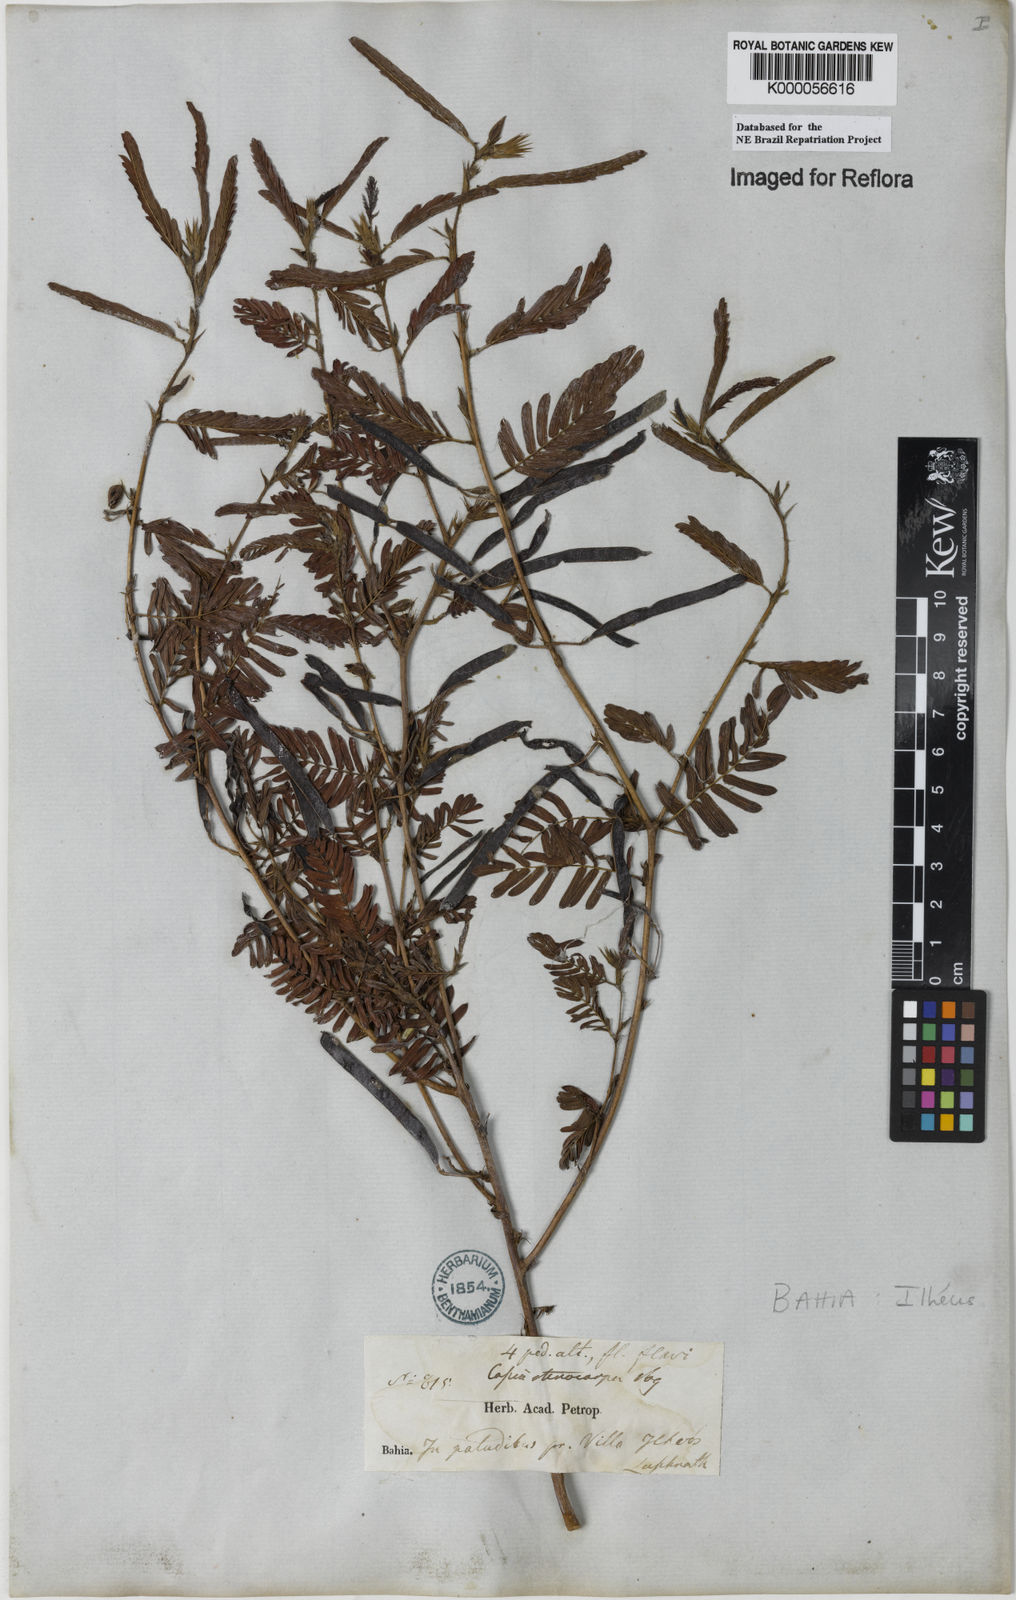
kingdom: Plantae
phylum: Tracheophyta
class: Magnoliopsida
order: Fabales
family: Fabaceae
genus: Chamaecrista
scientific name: Chamaecrista nictitans
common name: Sensitive cassia
